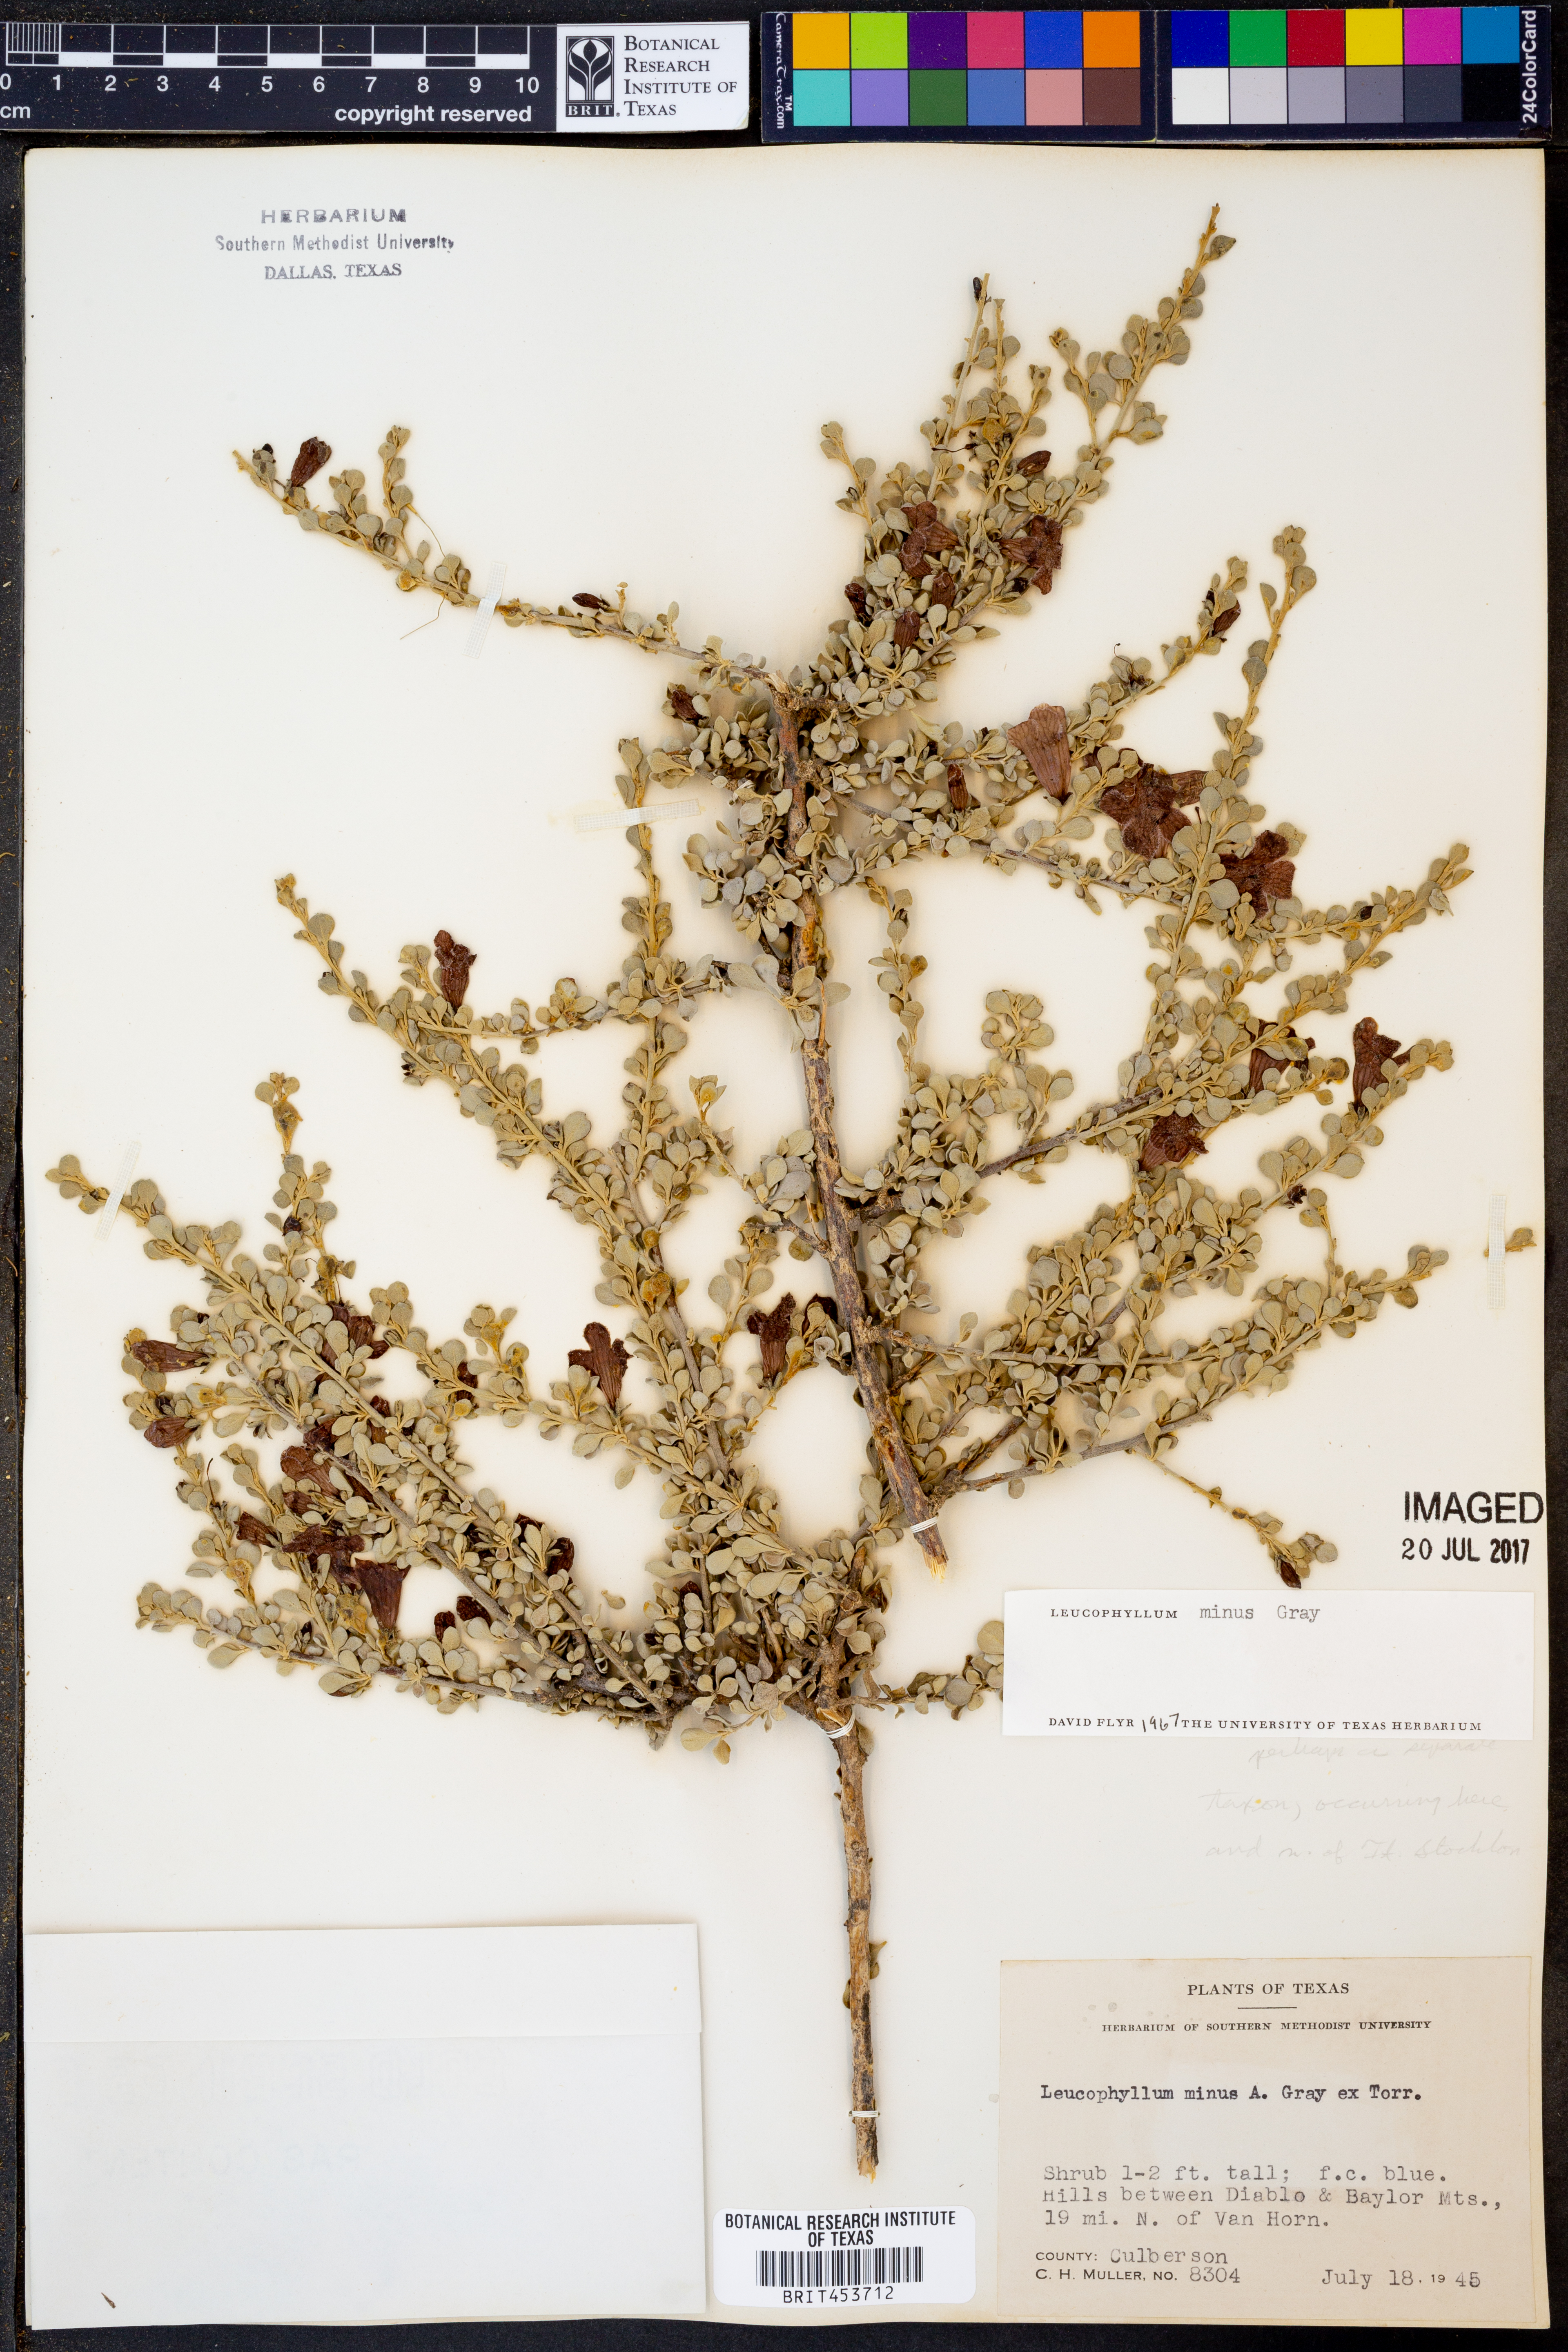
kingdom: Plantae
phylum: Tracheophyta
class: Magnoliopsida
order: Lamiales
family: Scrophulariaceae
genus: Leucophyllum
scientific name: Leucophyllum minus
